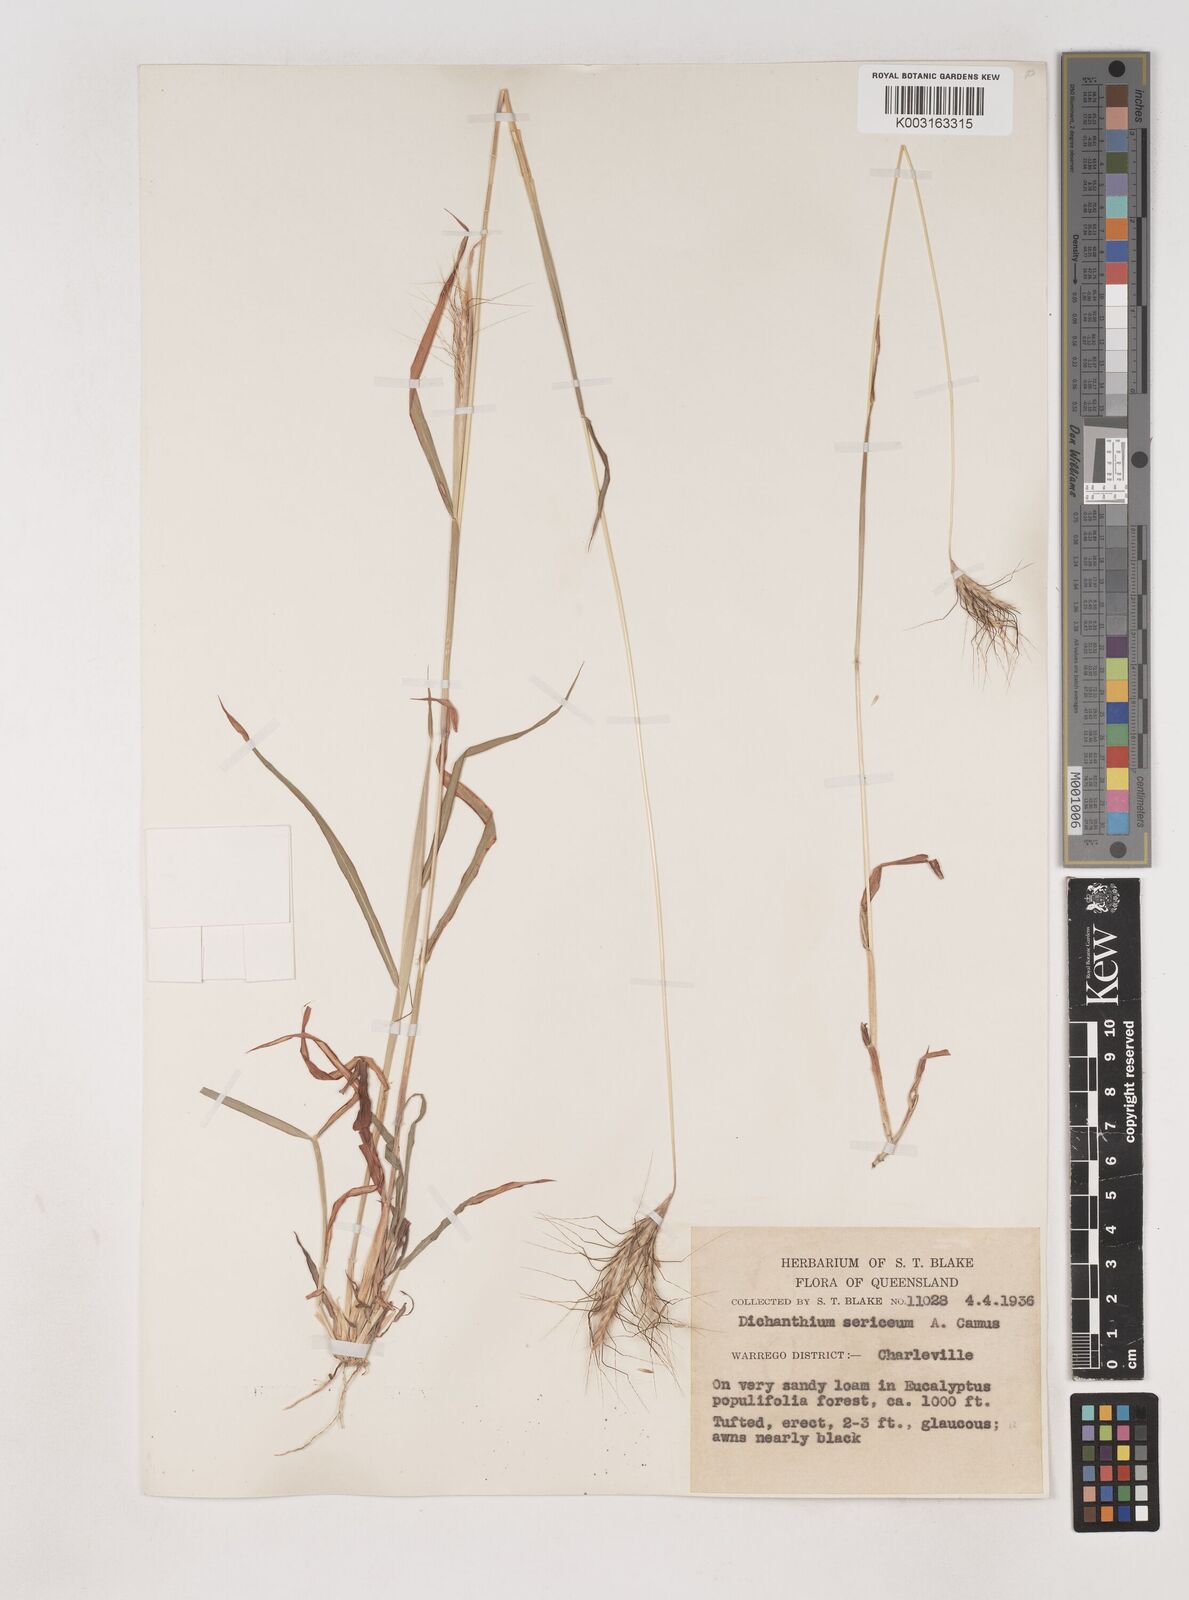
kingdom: Plantae
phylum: Tracheophyta
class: Liliopsida
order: Poales
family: Poaceae
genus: Dichanthium
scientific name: Dichanthium sericeum
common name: Silky bluestem
